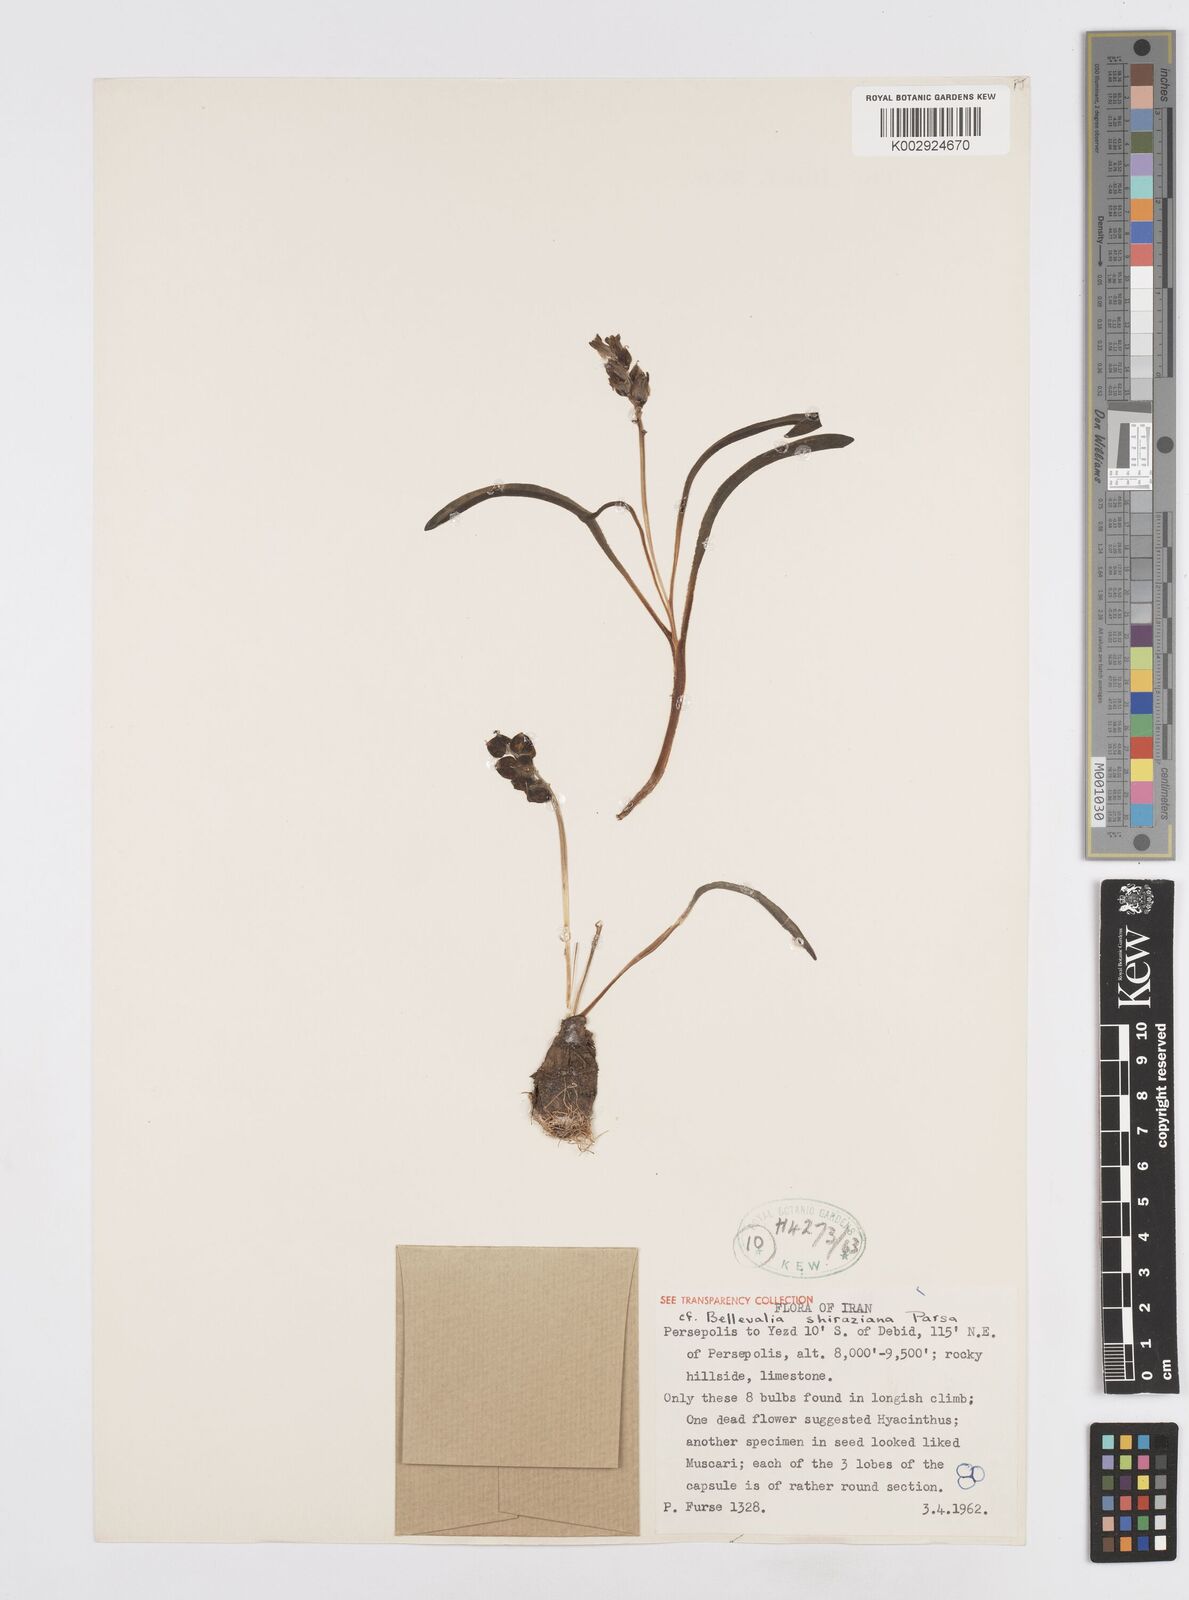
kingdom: Plantae
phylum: Tracheophyta
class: Liliopsida
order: Asparagales
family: Asparagaceae
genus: Bellevalia
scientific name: Bellevalia
